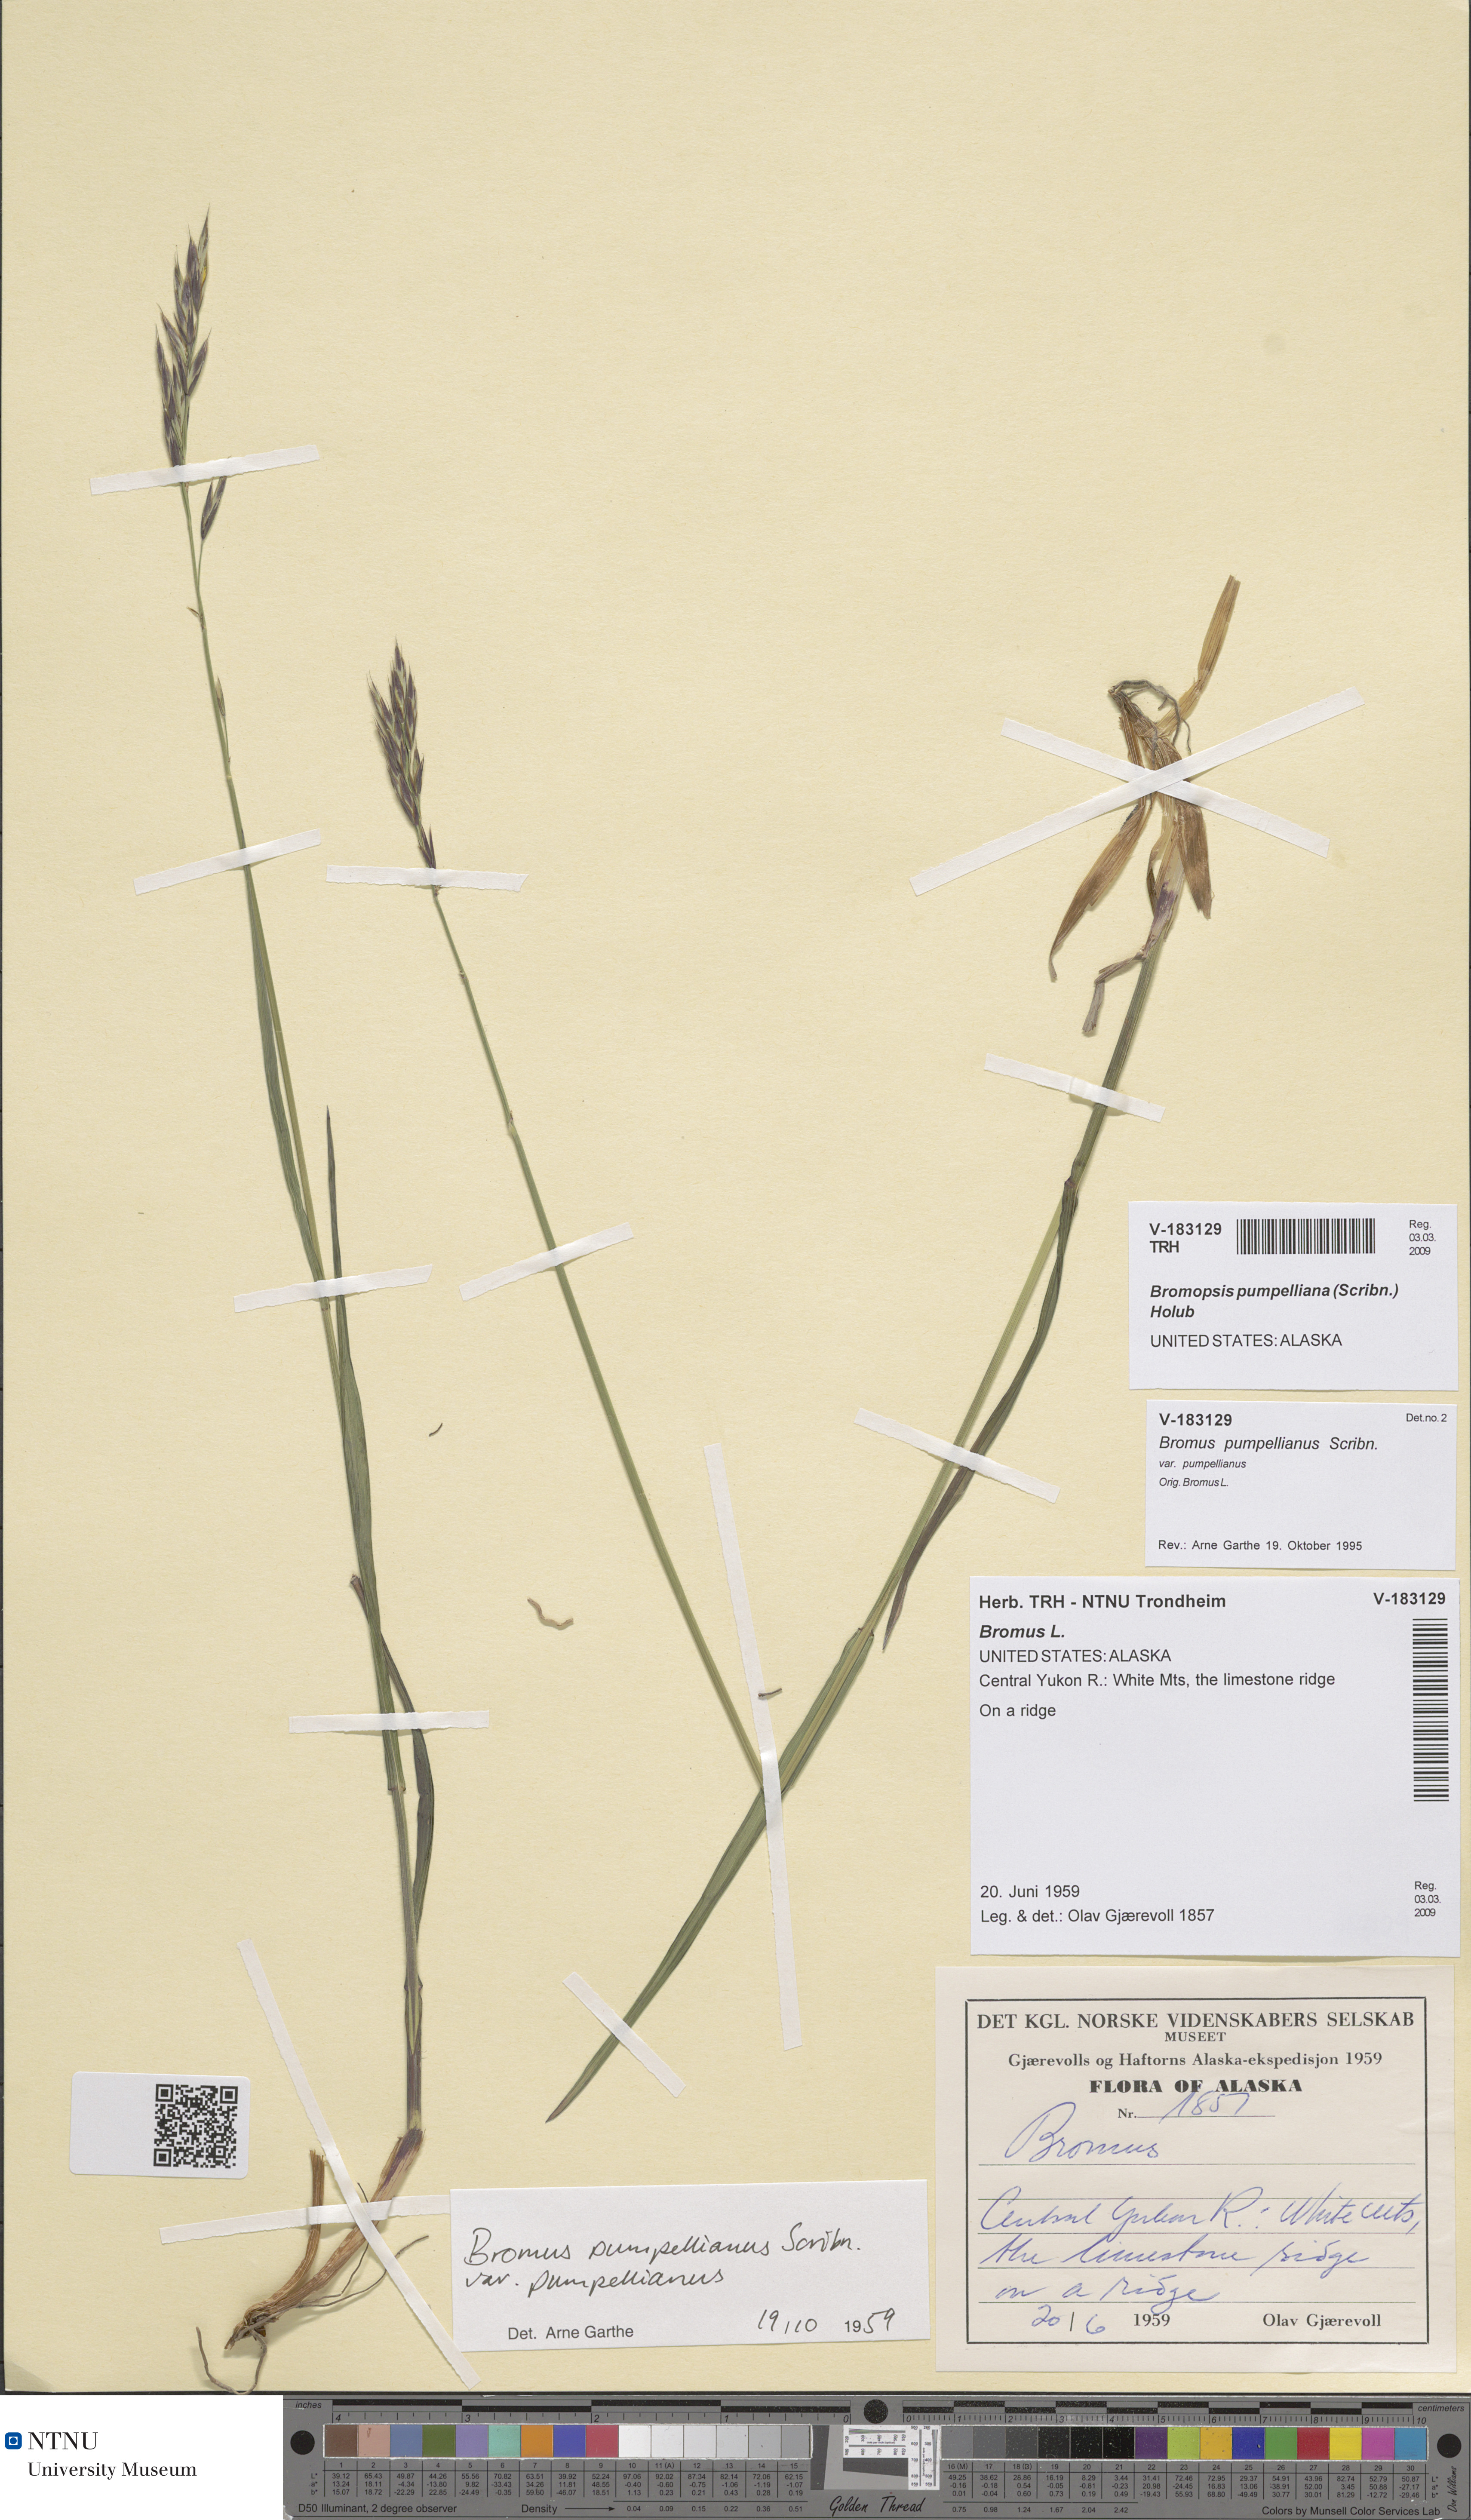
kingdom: Plantae
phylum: Tracheophyta
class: Liliopsida
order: Poales
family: Poaceae
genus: Bromus
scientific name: Bromus pumpellianus
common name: Pumpelly's brome
